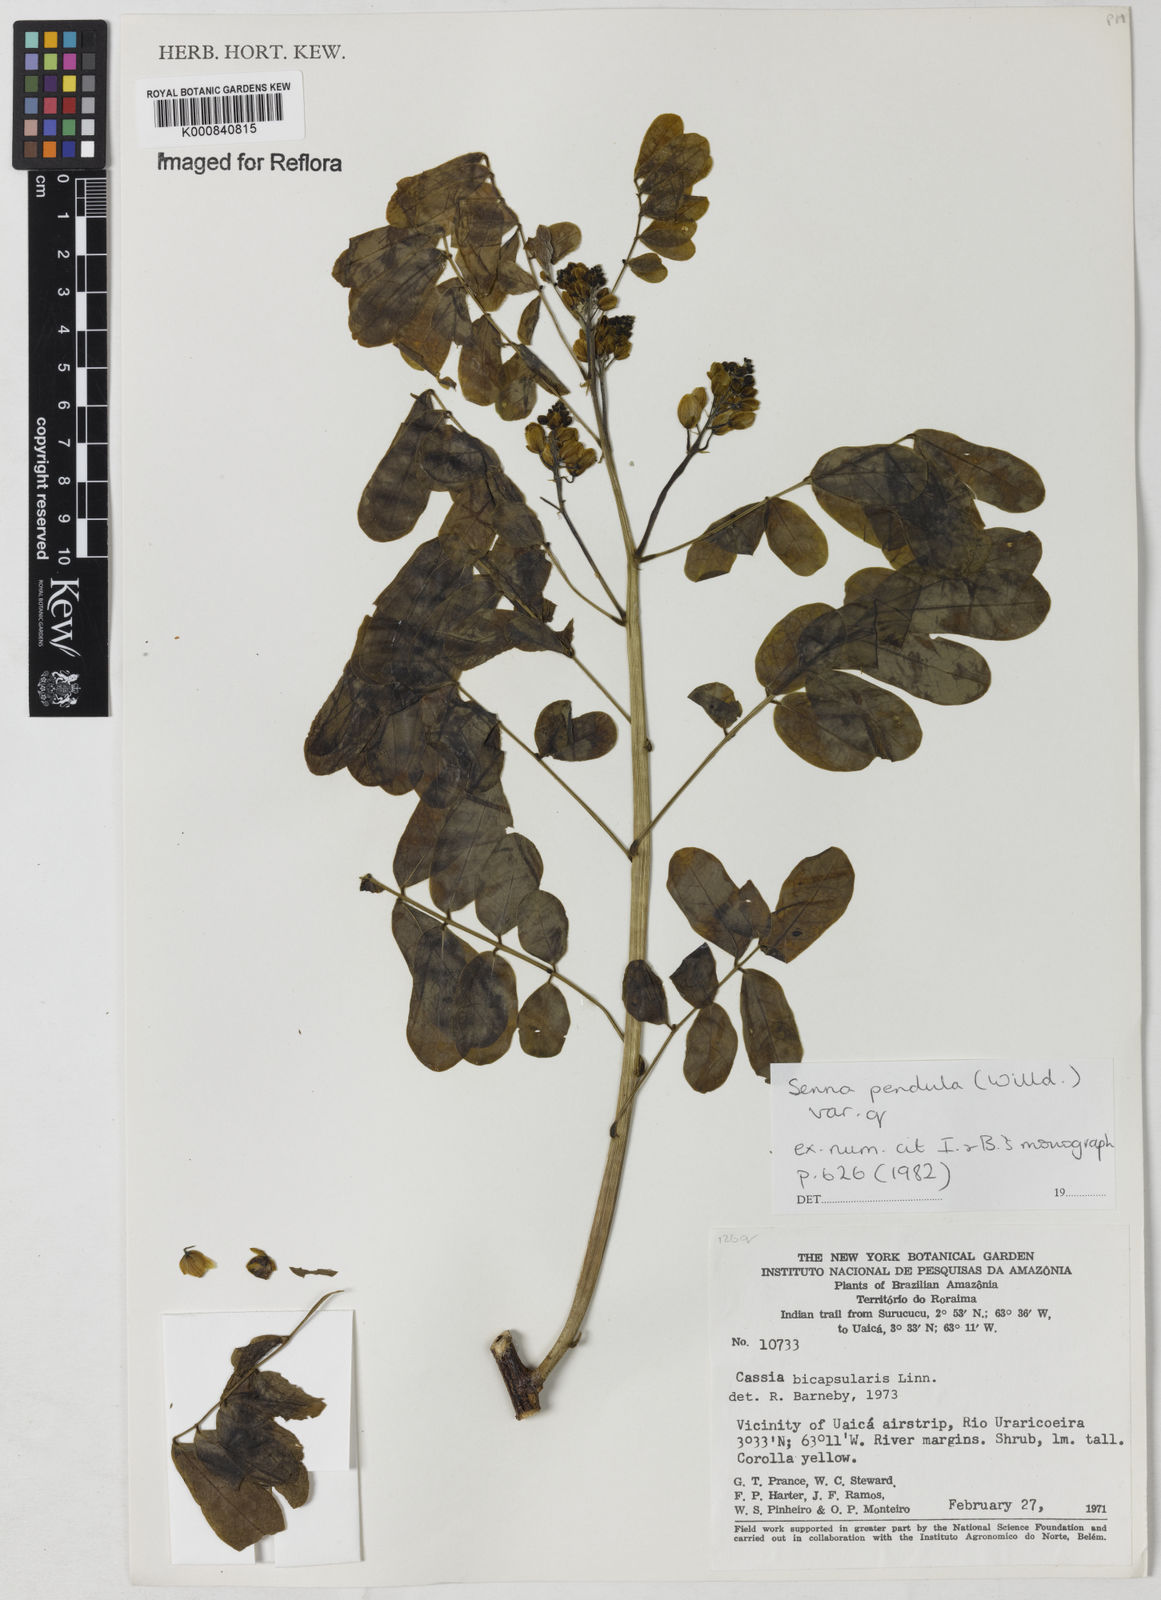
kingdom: Plantae
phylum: Tracheophyta
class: Magnoliopsida
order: Fabales
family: Fabaceae
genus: Senna
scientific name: Senna pendula
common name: Easter cassia
